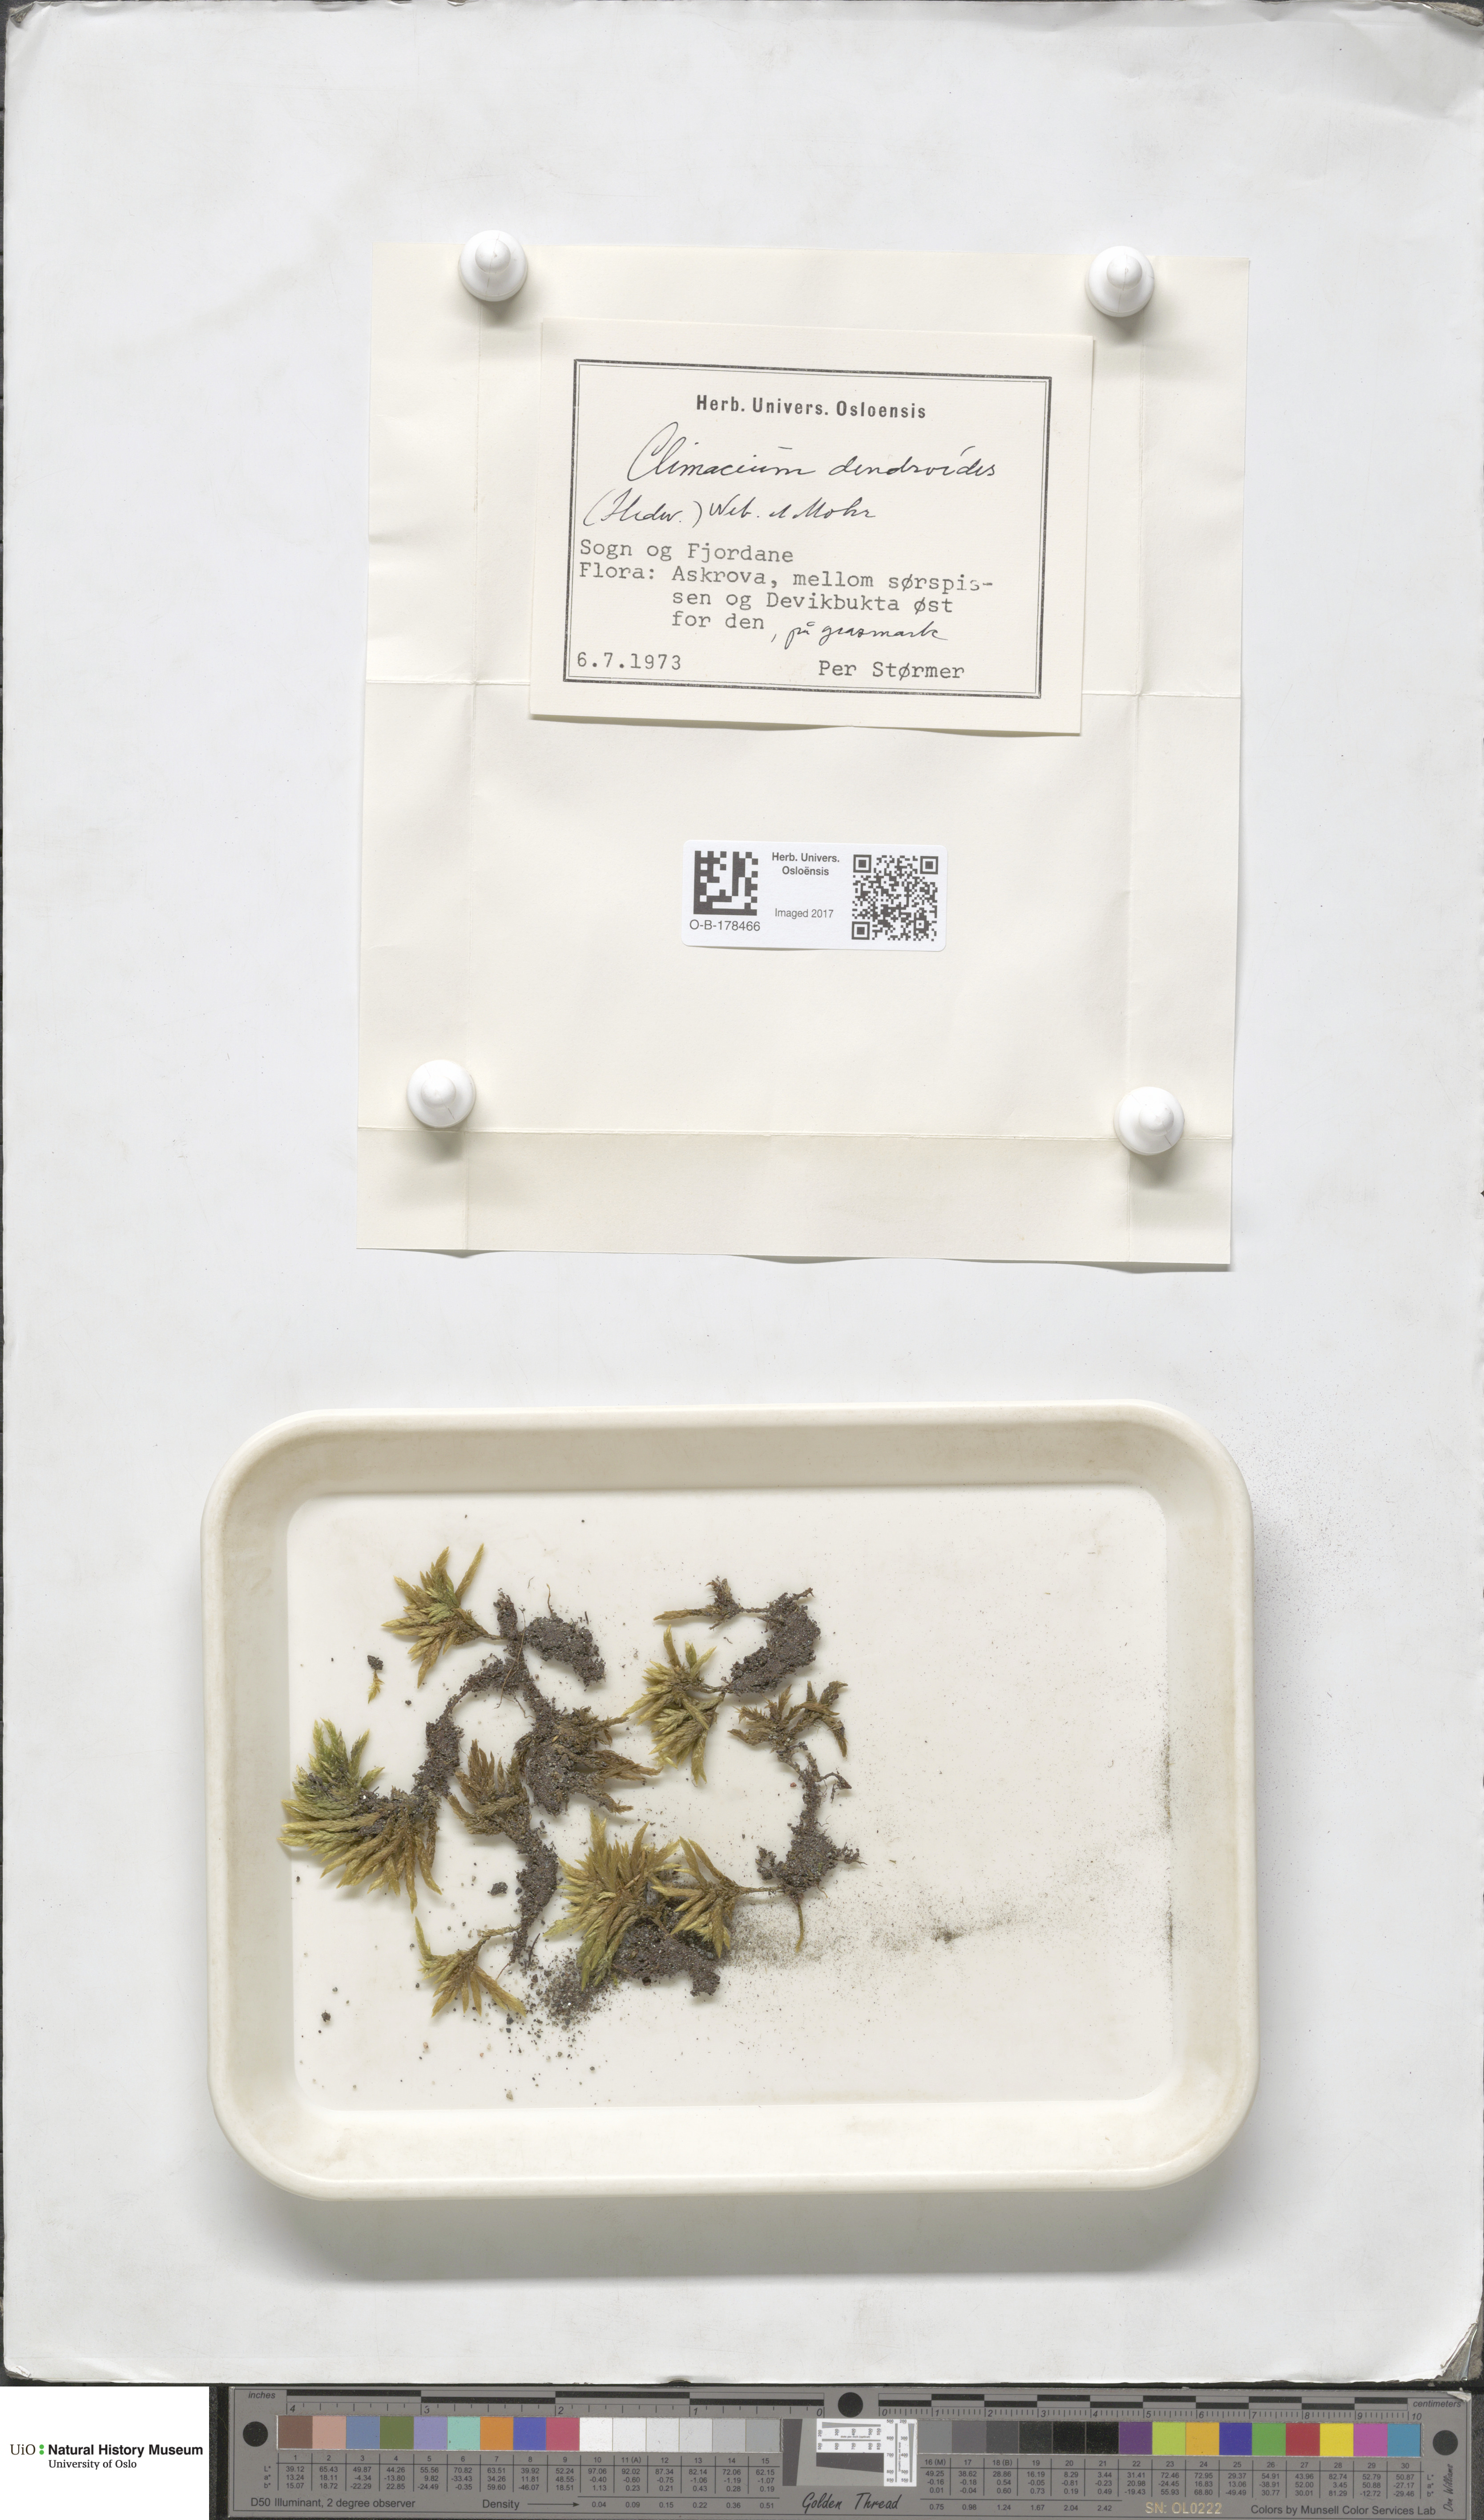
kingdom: Plantae
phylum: Bryophyta
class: Bryopsida
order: Hypnales
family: Climaciaceae
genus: Climacium
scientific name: Climacium dendroides
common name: Northern tree moss
